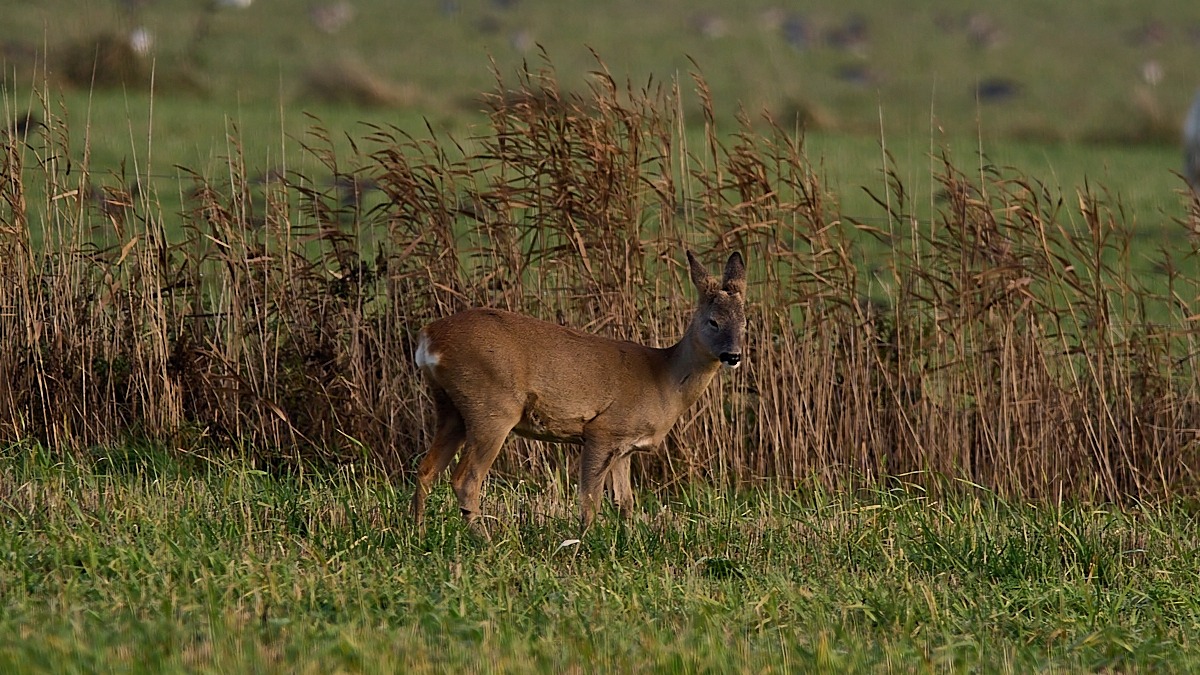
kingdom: Animalia
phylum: Chordata
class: Mammalia
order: Artiodactyla
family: Cervidae
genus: Capreolus
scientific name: Capreolus capreolus
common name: Rådyr
